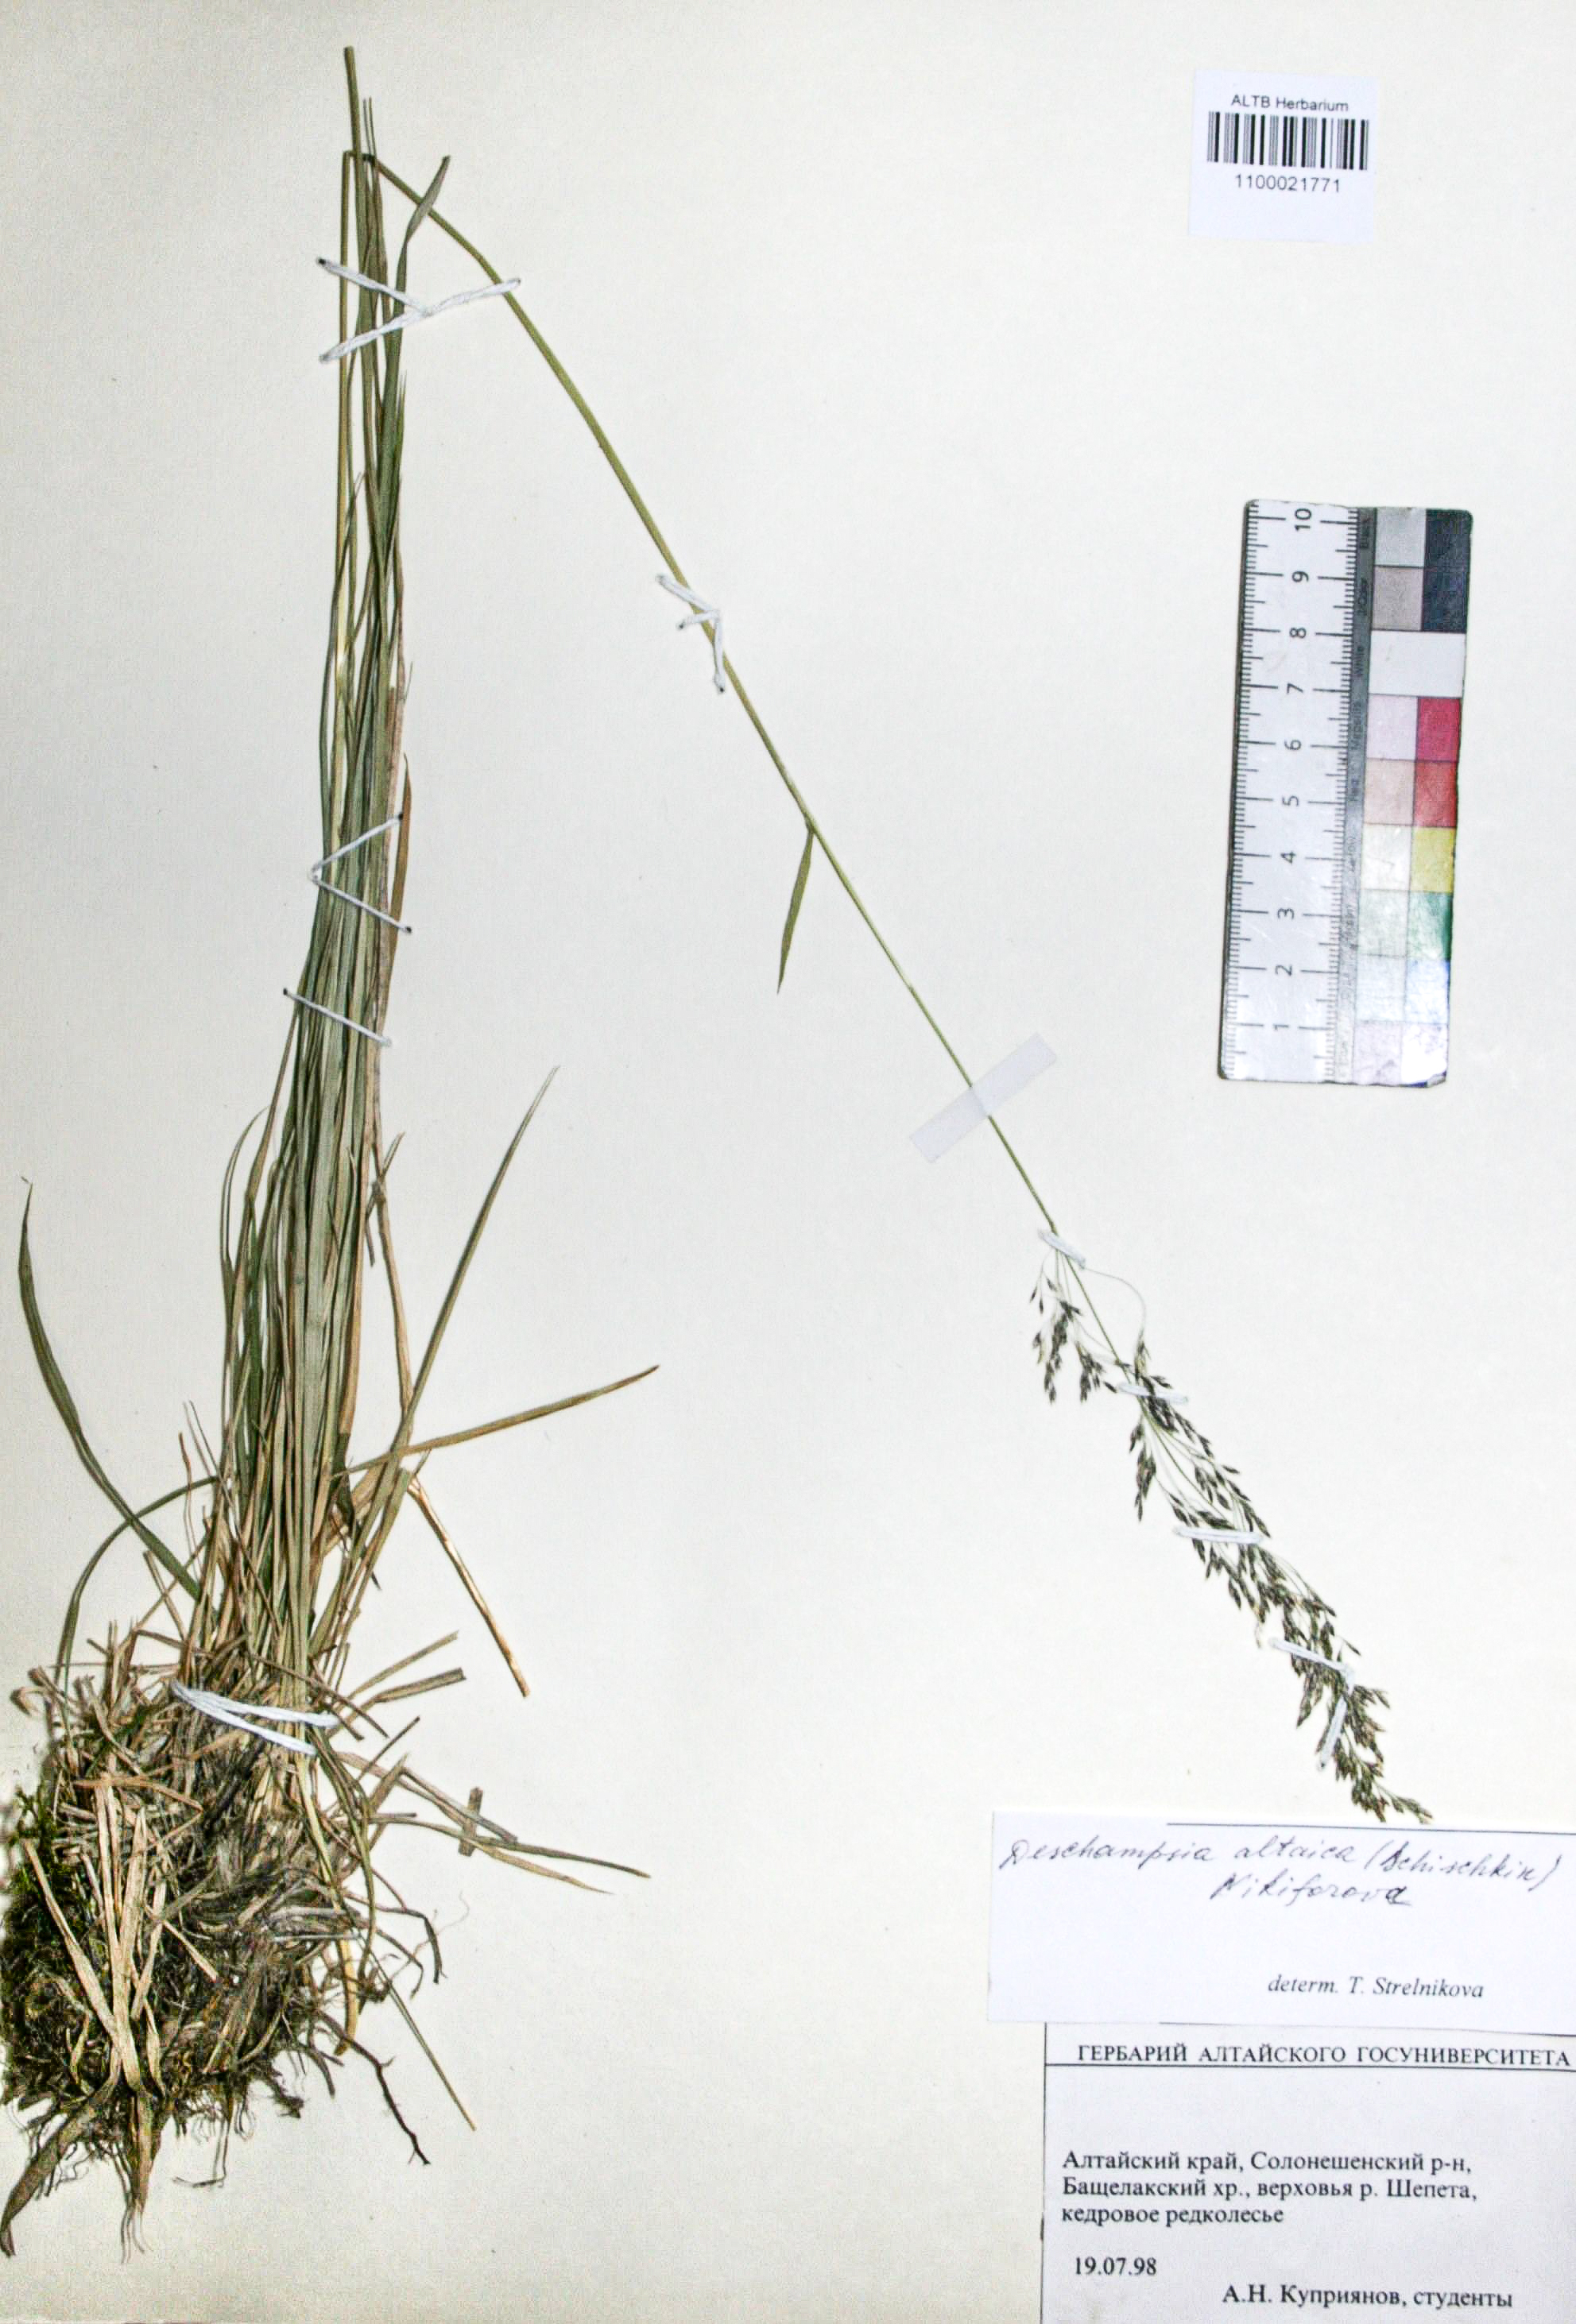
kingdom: Plantae
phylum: Tracheophyta
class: Liliopsida
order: Poales
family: Poaceae
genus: Deschampsia
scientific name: Deschampsia cespitosa
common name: Tufted hair-grass
